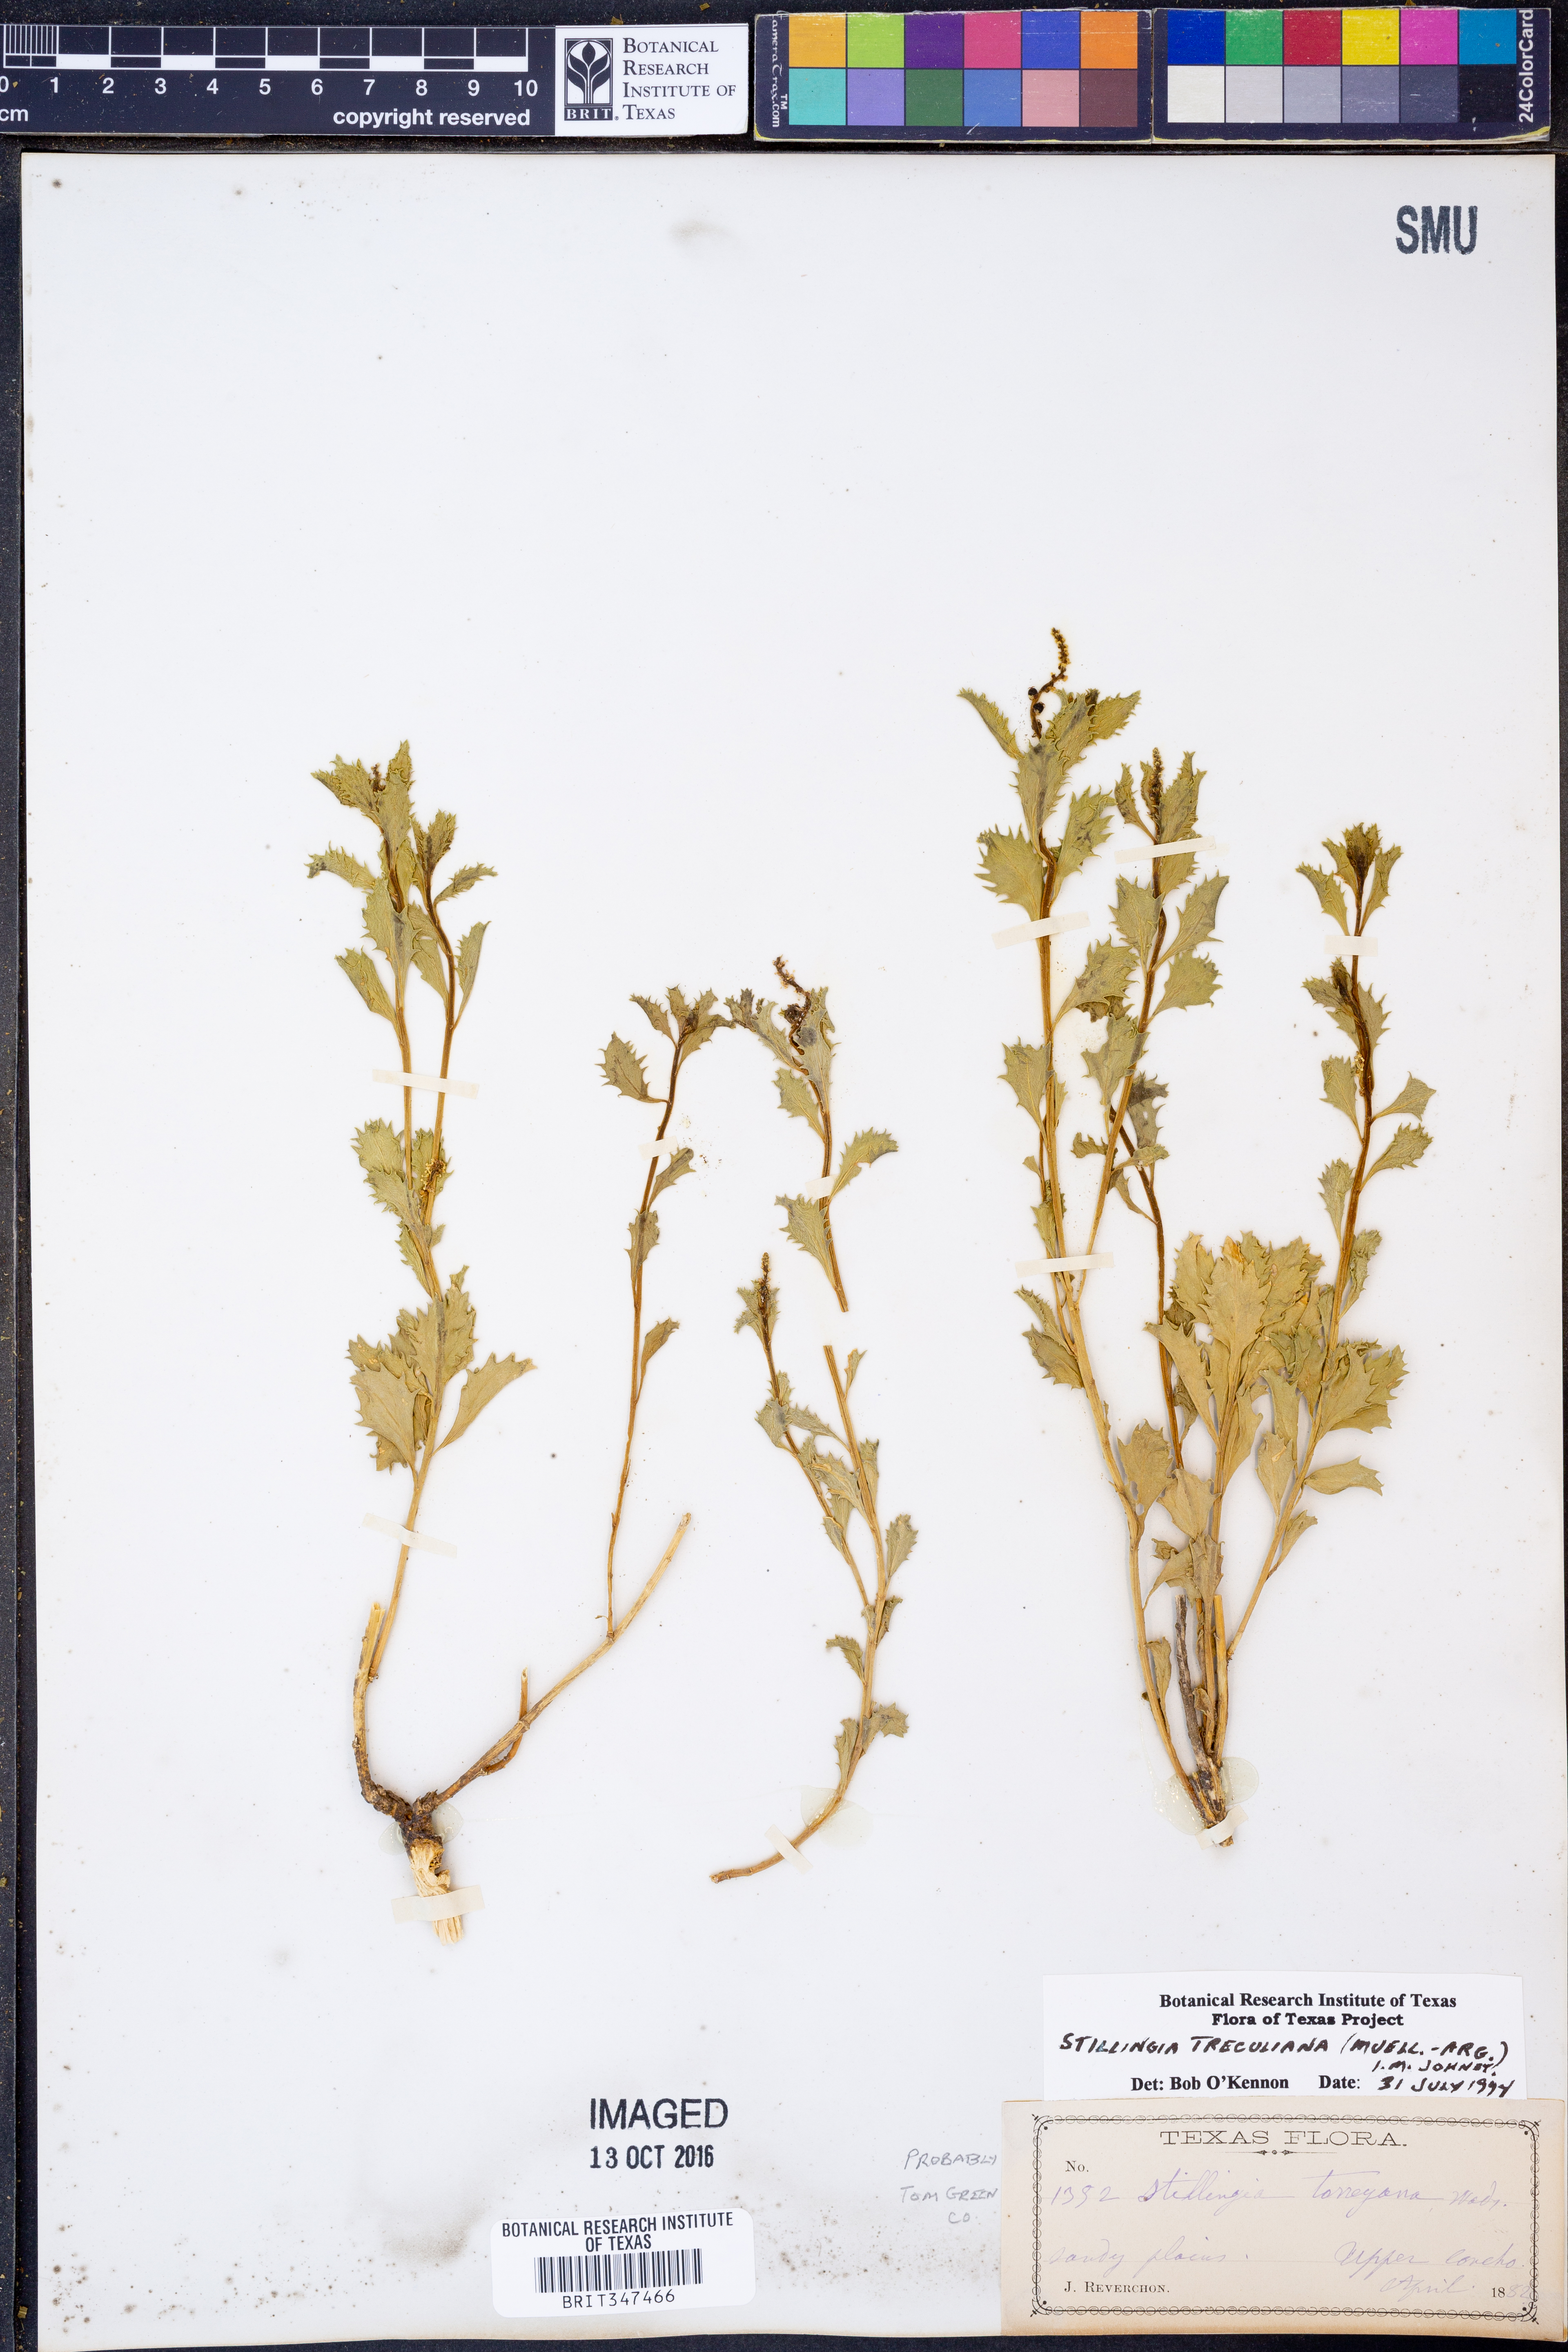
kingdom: Plantae
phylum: Tracheophyta
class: Magnoliopsida
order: Malpighiales
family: Euphorbiaceae
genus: Stillingia
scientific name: Stillingia treculiana
